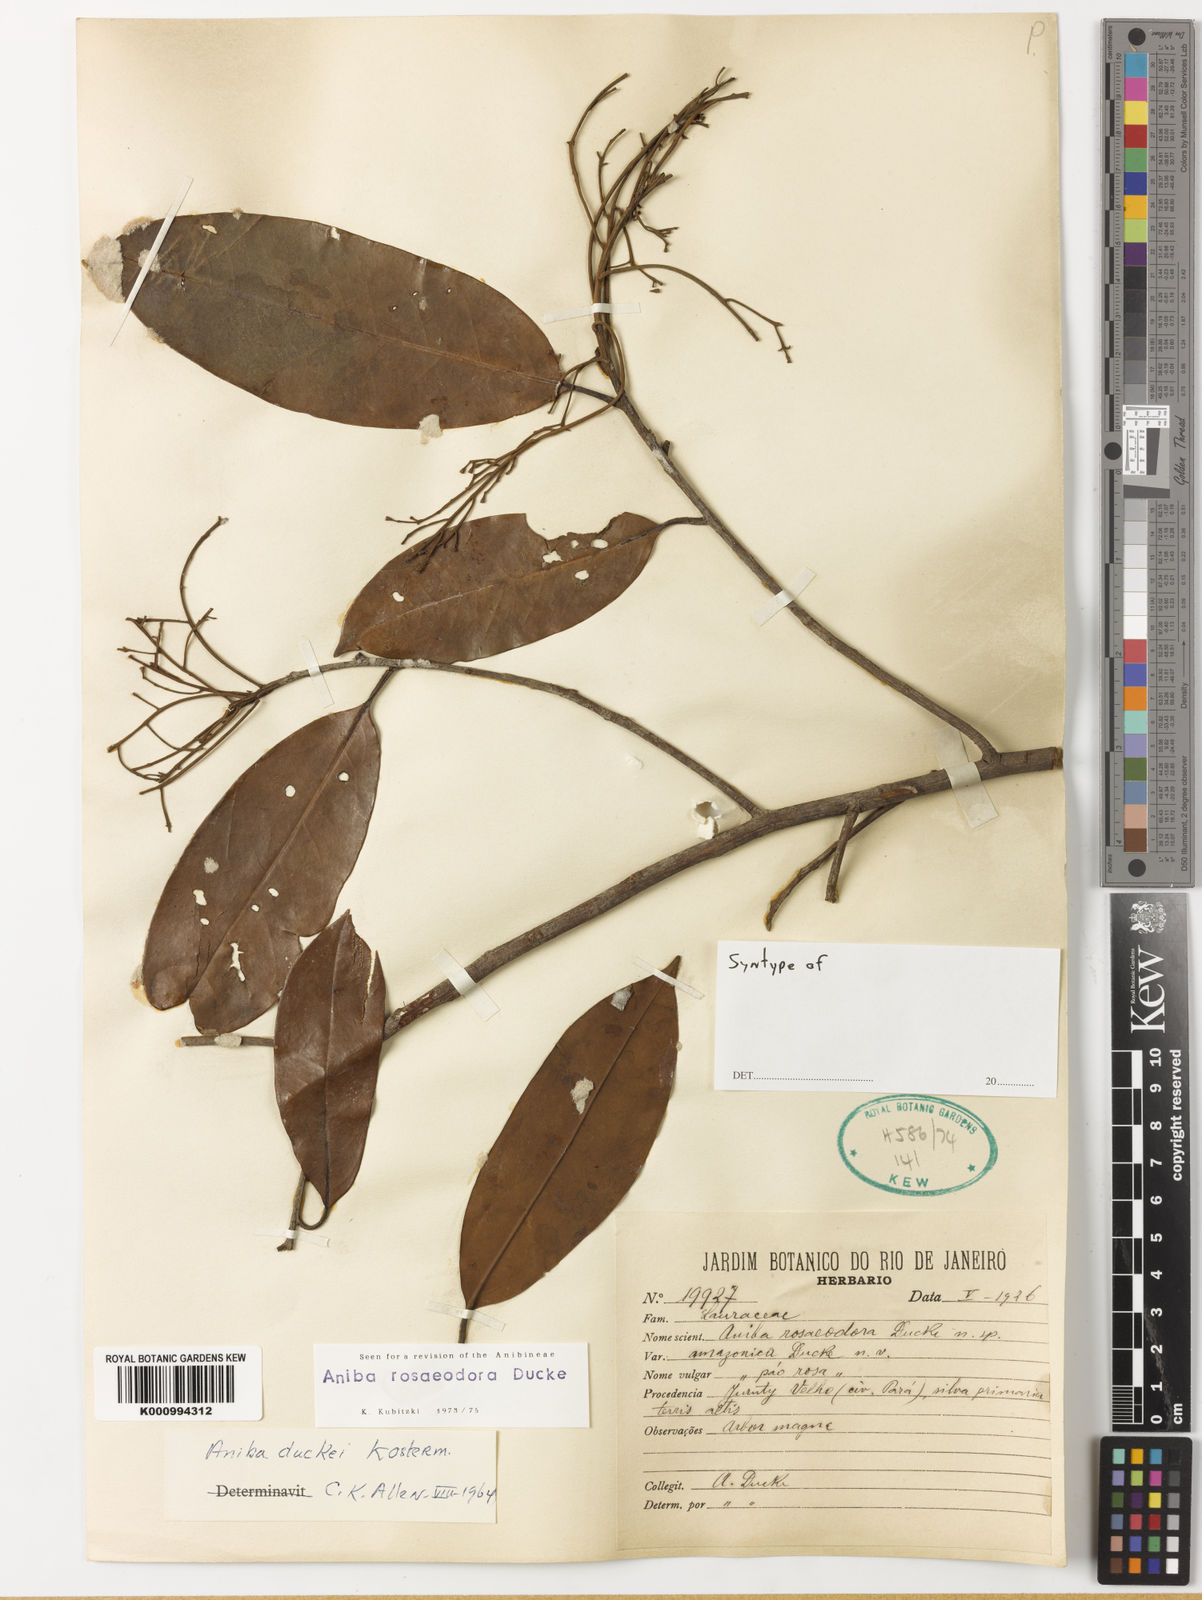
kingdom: Plantae
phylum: Tracheophyta
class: Magnoliopsida
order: Laurales
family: Lauraceae
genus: Aniba
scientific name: Aniba
